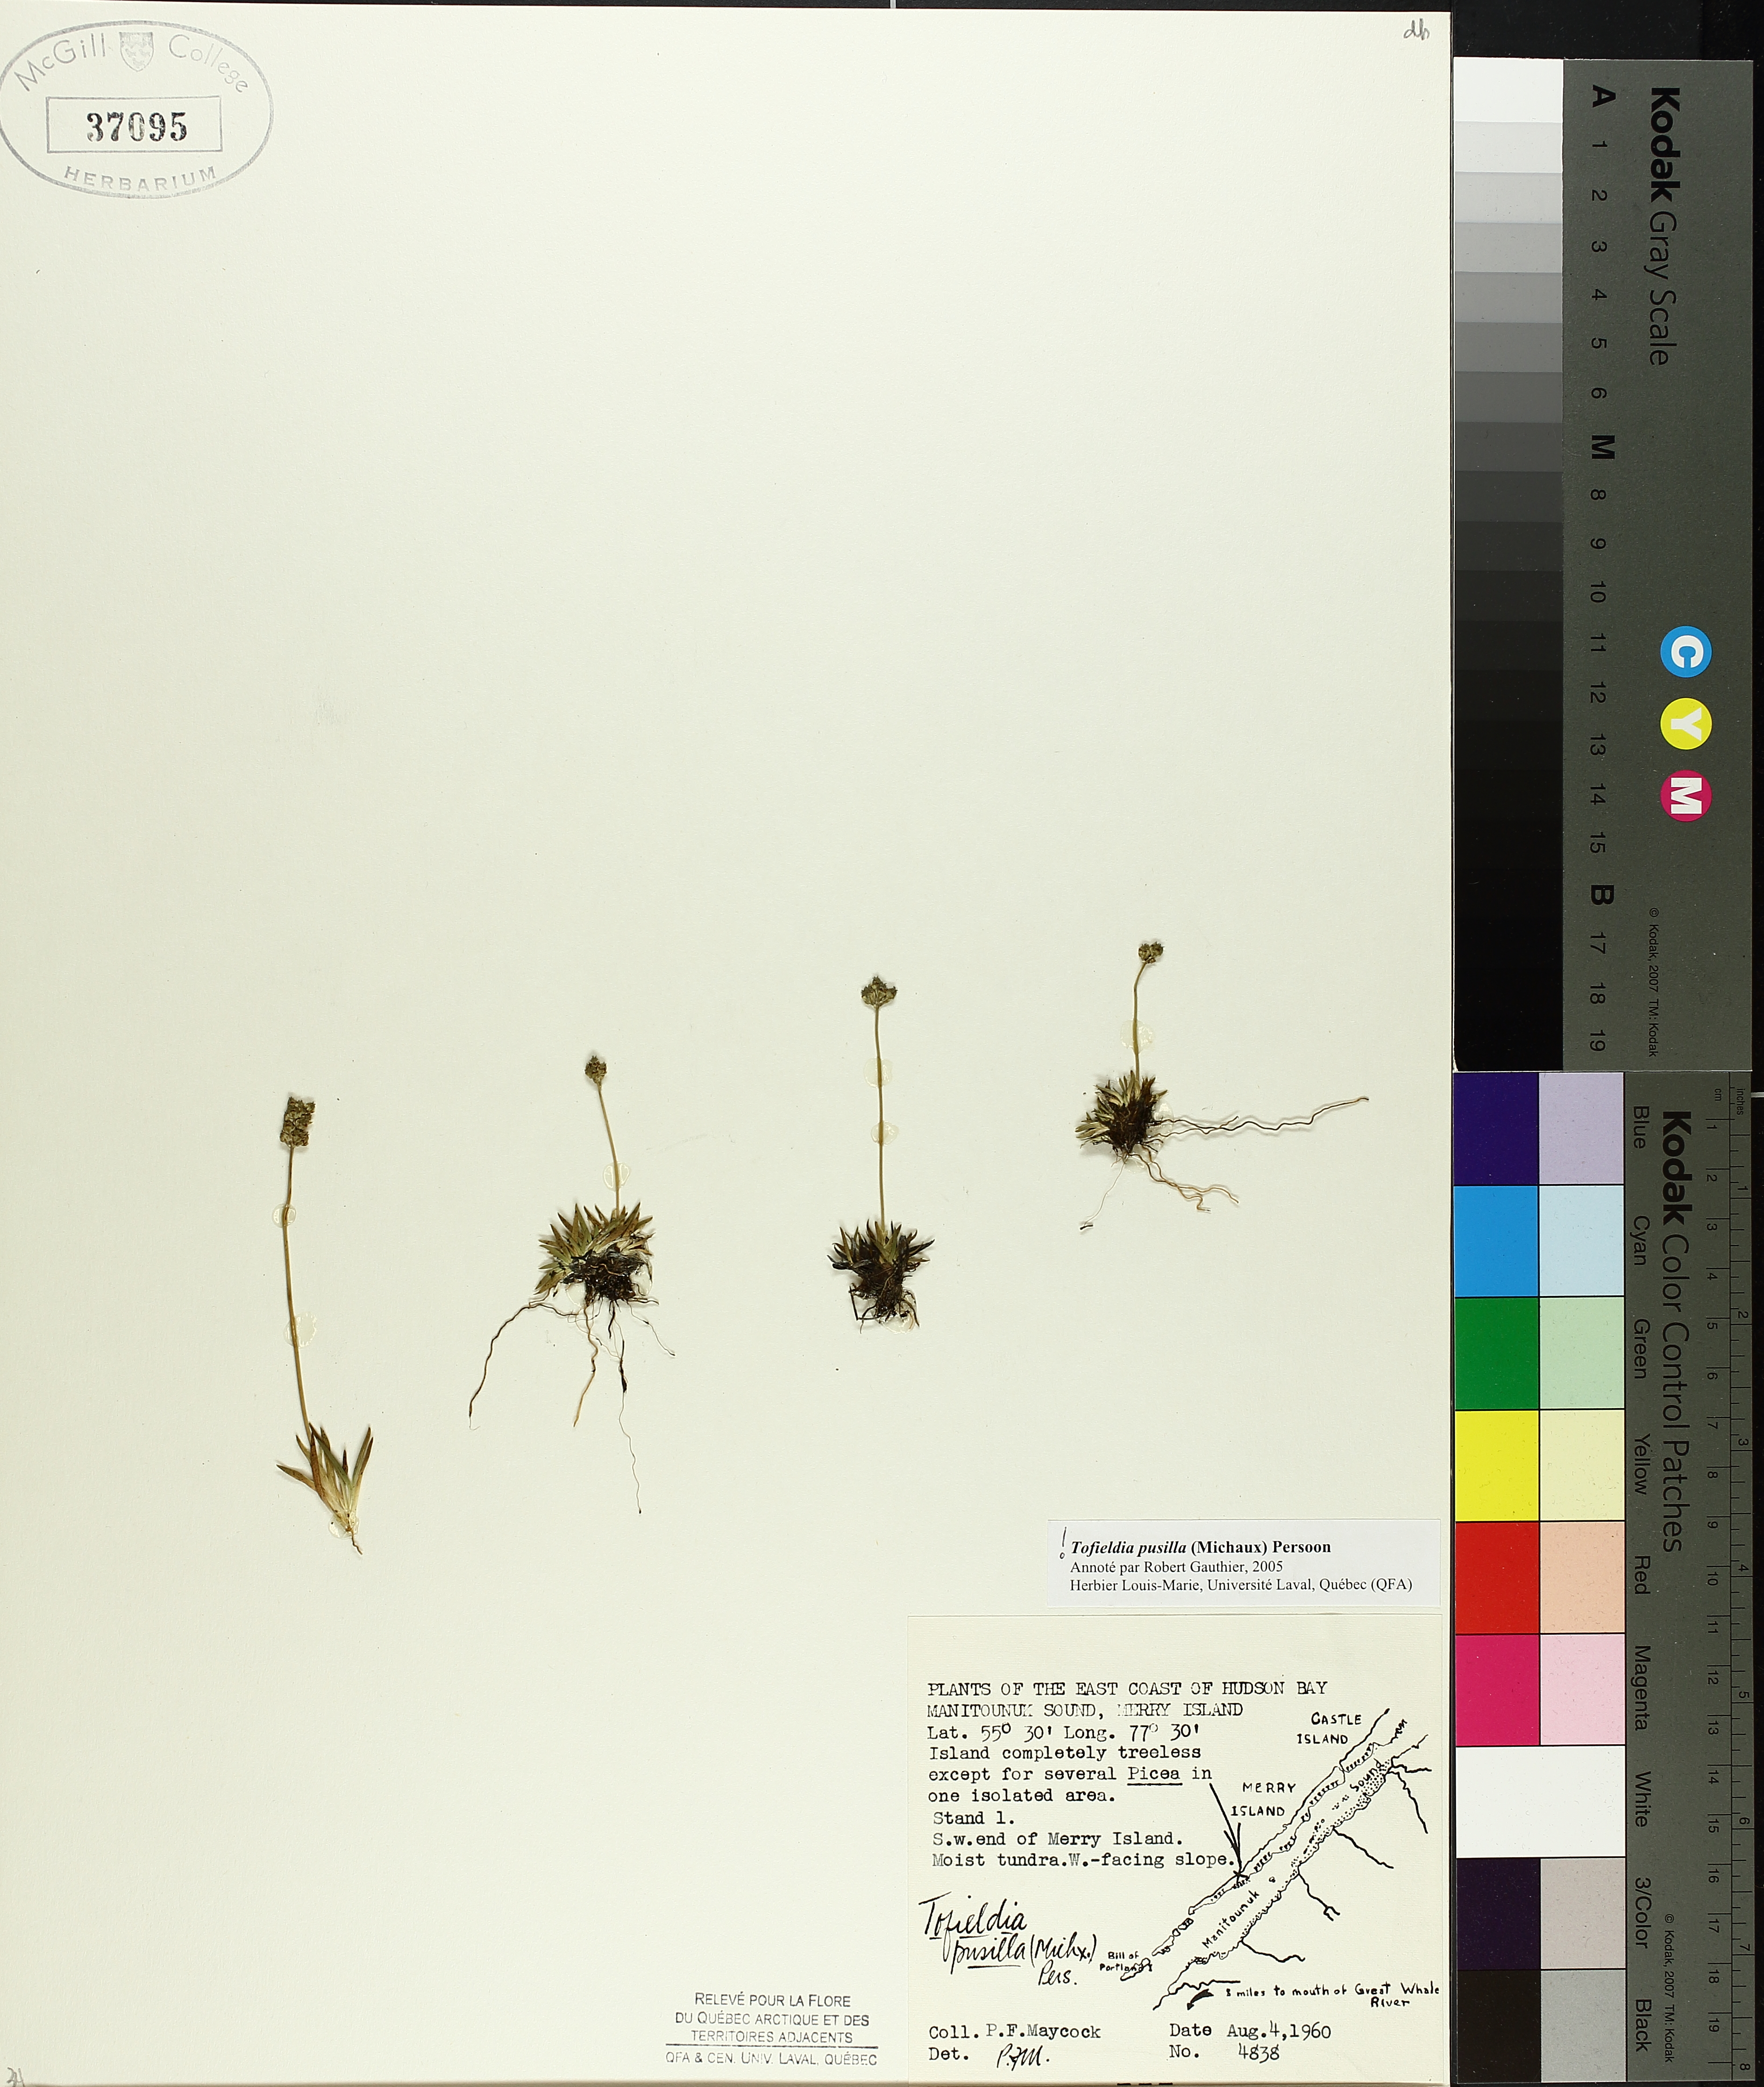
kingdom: Plantae
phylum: Tracheophyta
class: Liliopsida
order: Alismatales
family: Tofieldiaceae
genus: Tofieldia
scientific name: Tofieldia pusilla
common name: Scottish false asphodel
